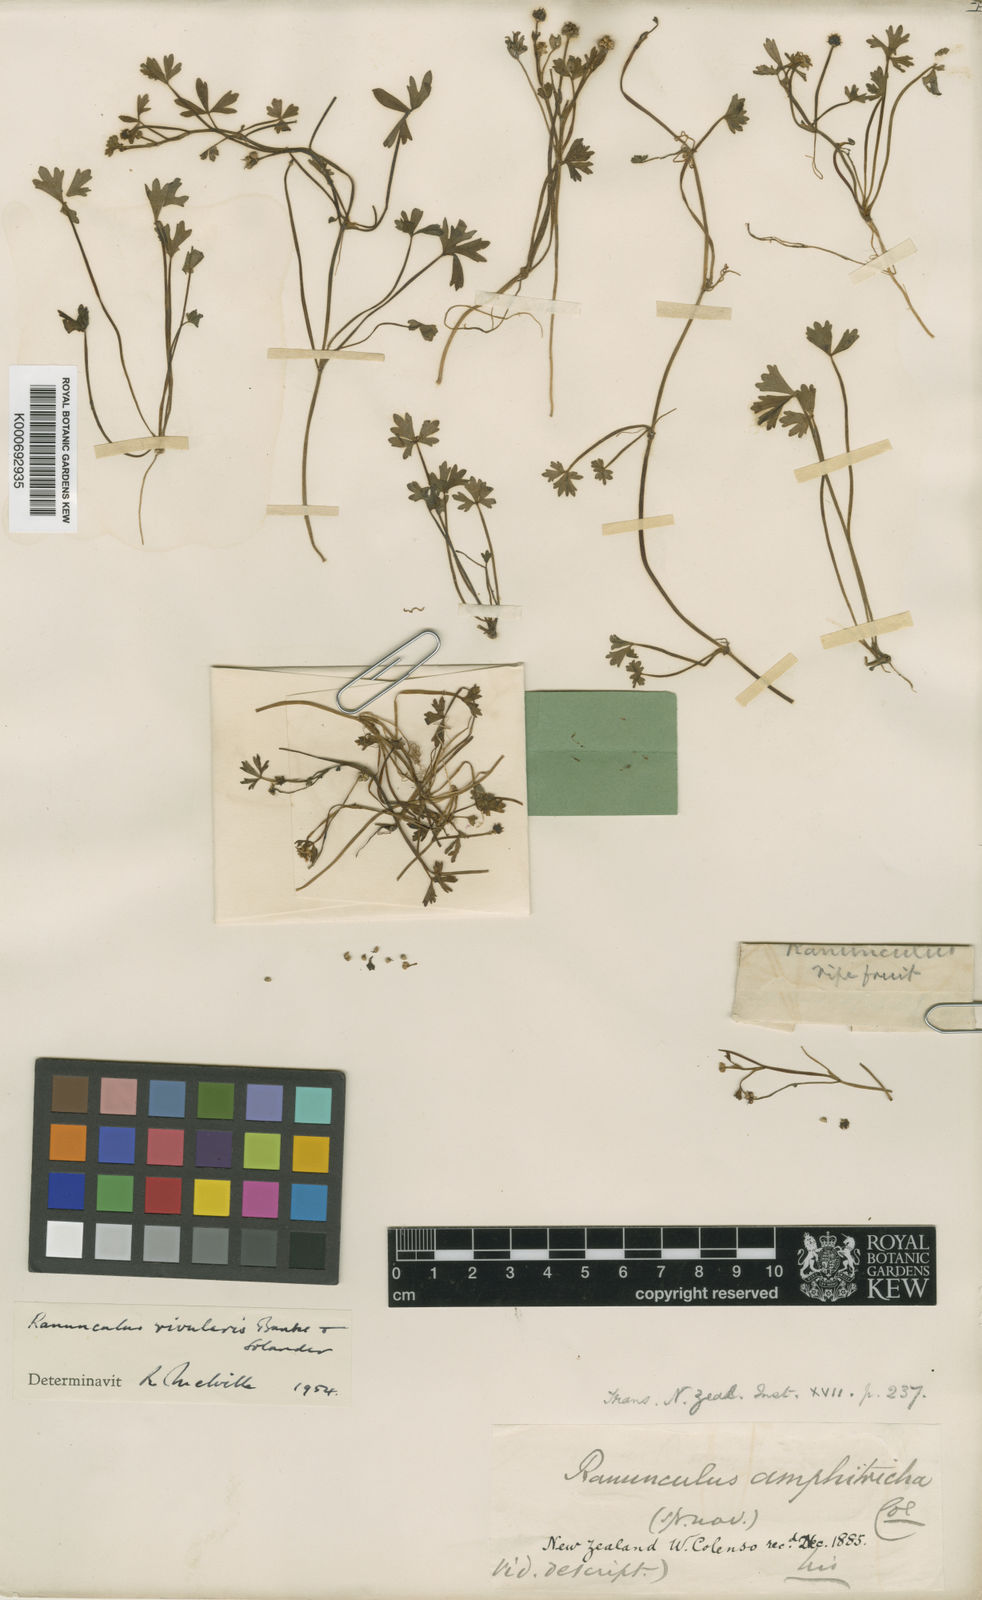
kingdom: Plantae
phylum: Tracheophyta
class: Magnoliopsida
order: Ranunculales
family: Ranunculaceae
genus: Ranunculus
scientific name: Ranunculus
